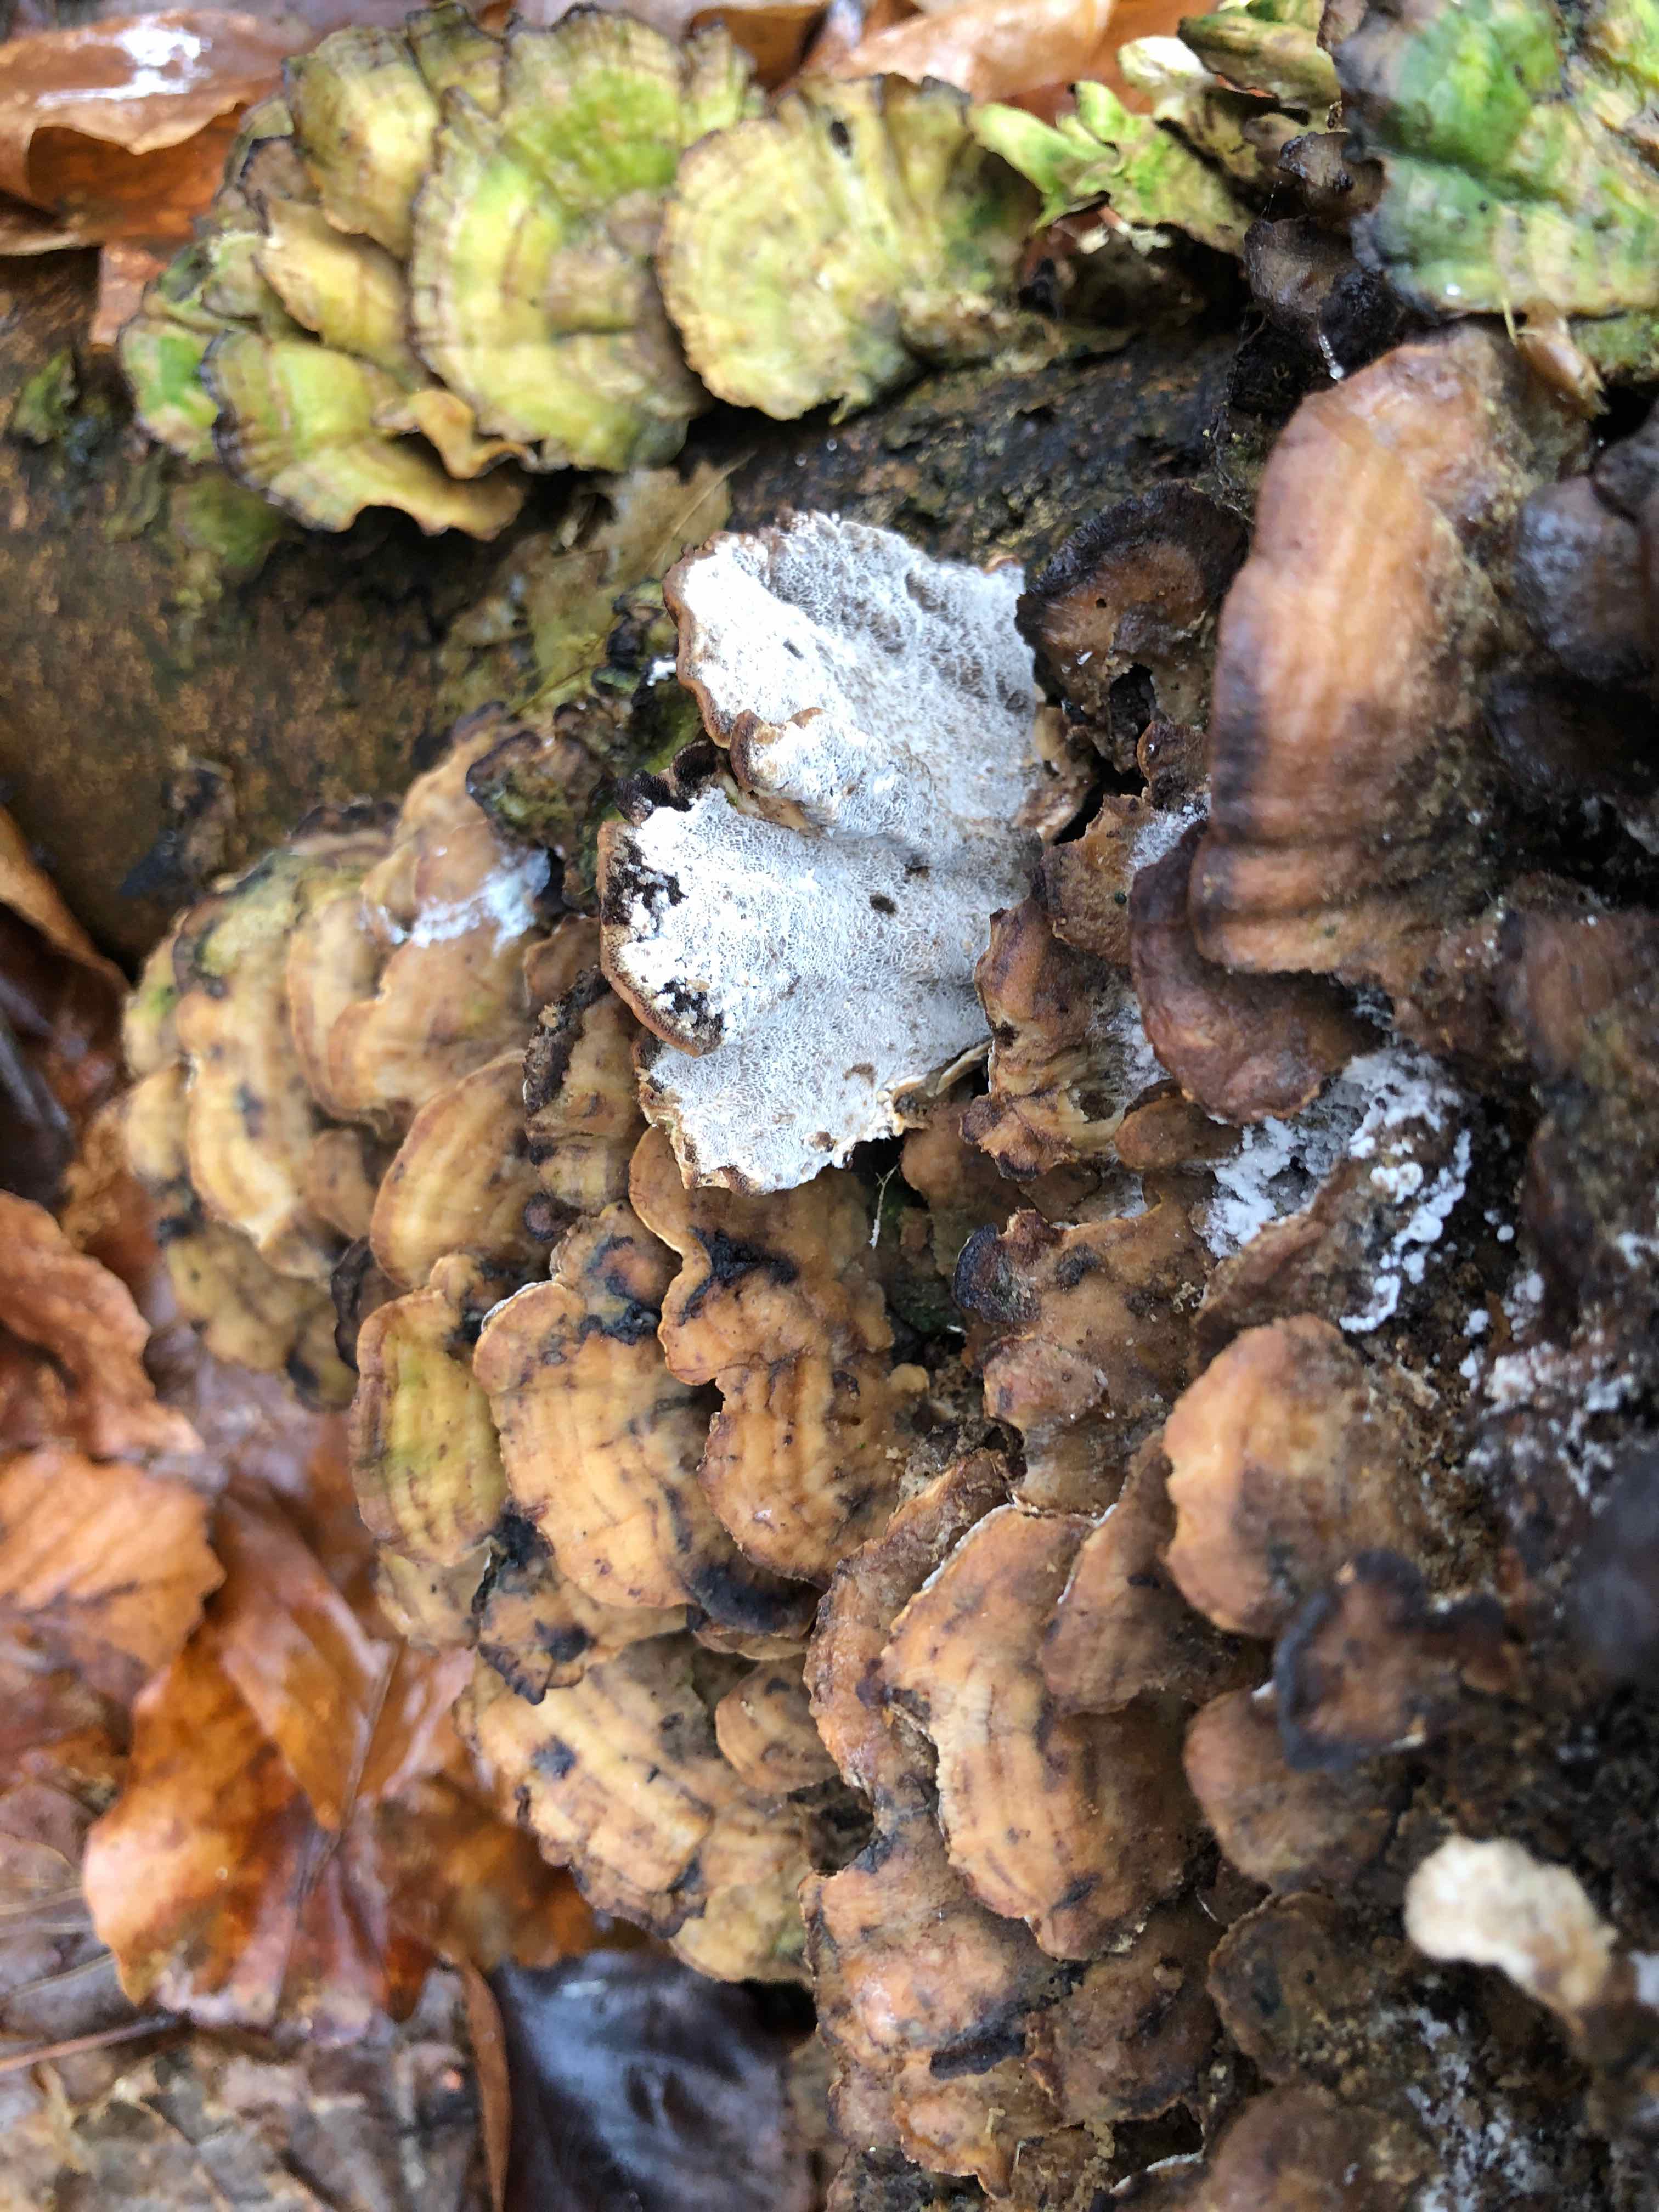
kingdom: Fungi
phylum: Basidiomycota
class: Agaricomycetes
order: Polyporales
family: Phanerochaetaceae
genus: Bjerkandera
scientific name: Bjerkandera adusta
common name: sveden sodporesvamp
